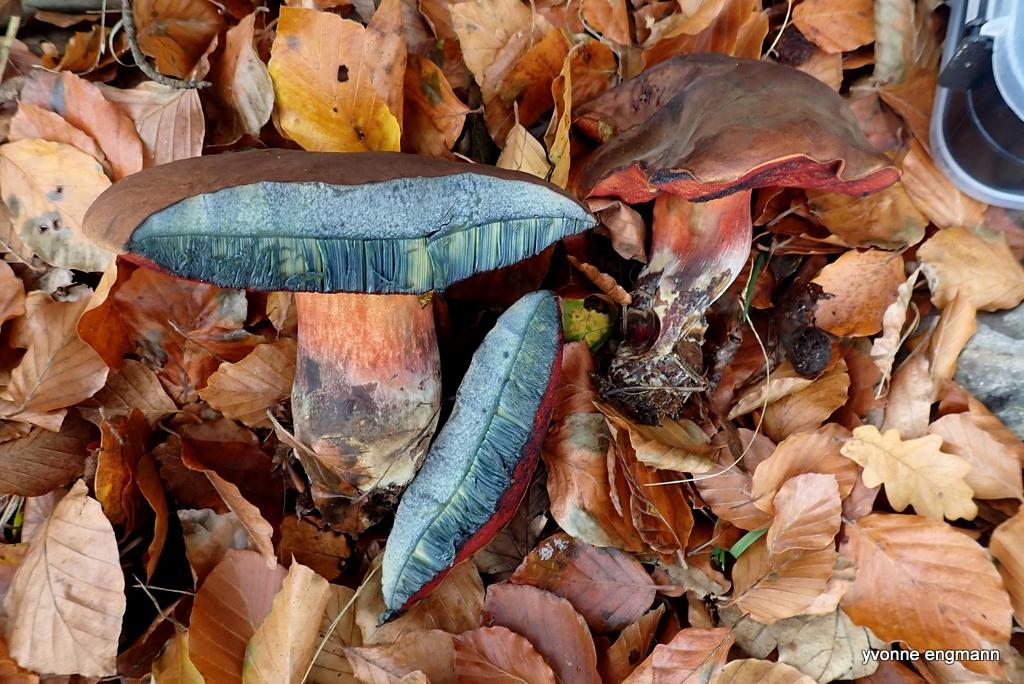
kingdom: Fungi
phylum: Basidiomycota
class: Agaricomycetes
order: Boletales
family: Boletaceae
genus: Neoboletus
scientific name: Neoboletus erythropus
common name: punktstokket indigorørhat
